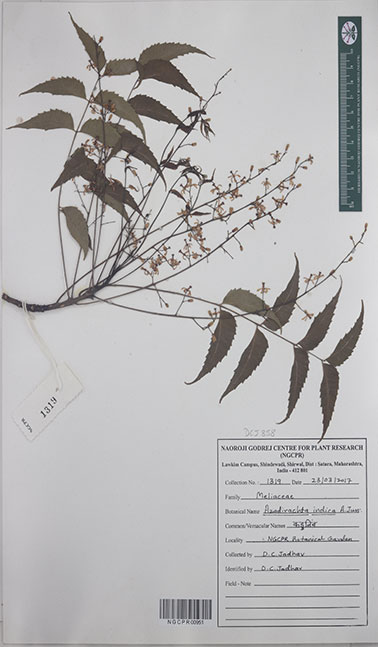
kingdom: Plantae
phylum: Tracheophyta
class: Magnoliopsida
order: Sapindales
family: Meliaceae
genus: Azadirachta
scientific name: Azadirachta indica
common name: Neem
